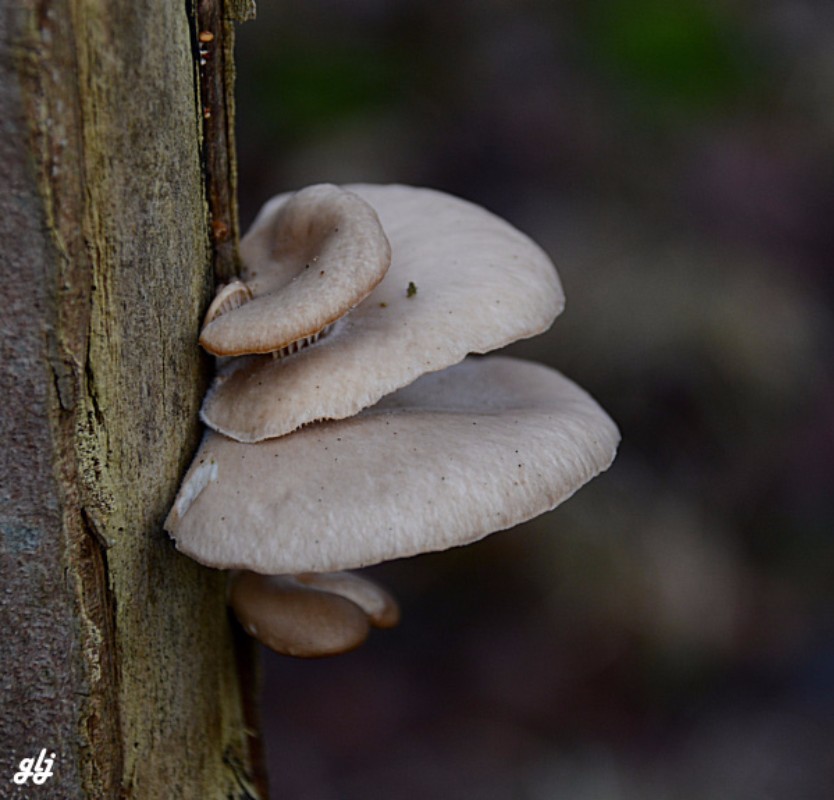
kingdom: Fungi
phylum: Basidiomycota
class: Agaricomycetes
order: Agaricales
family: Pleurotaceae
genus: Pleurotus
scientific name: Pleurotus ostreatus
